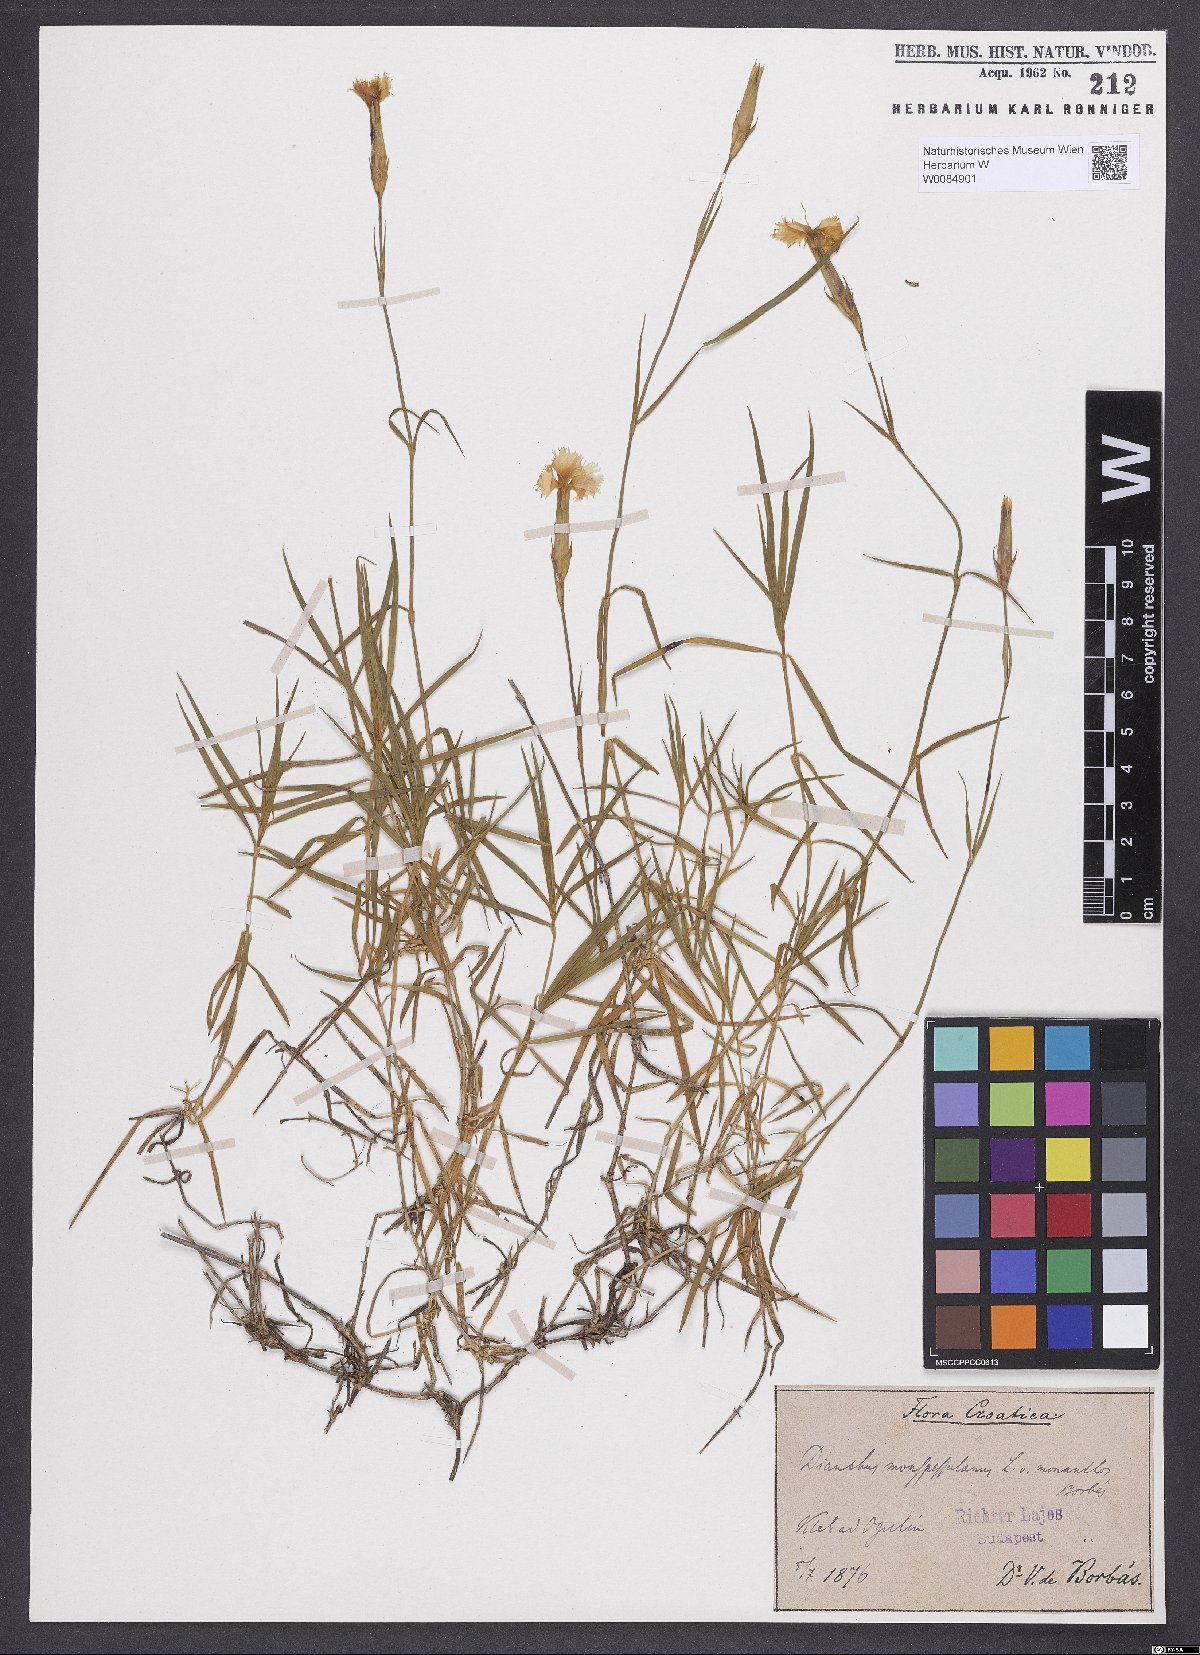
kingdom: Plantae
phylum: Tracheophyta
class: Magnoliopsida
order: Caryophyllales
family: Caryophyllaceae
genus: Dianthus
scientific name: Dianthus hyssopifolius
